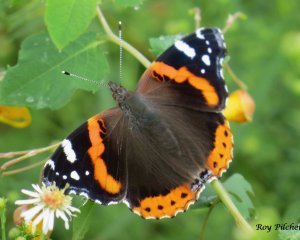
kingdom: Animalia
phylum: Arthropoda
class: Insecta
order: Lepidoptera
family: Nymphalidae
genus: Vanessa
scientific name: Vanessa atalanta
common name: Red Admiral
